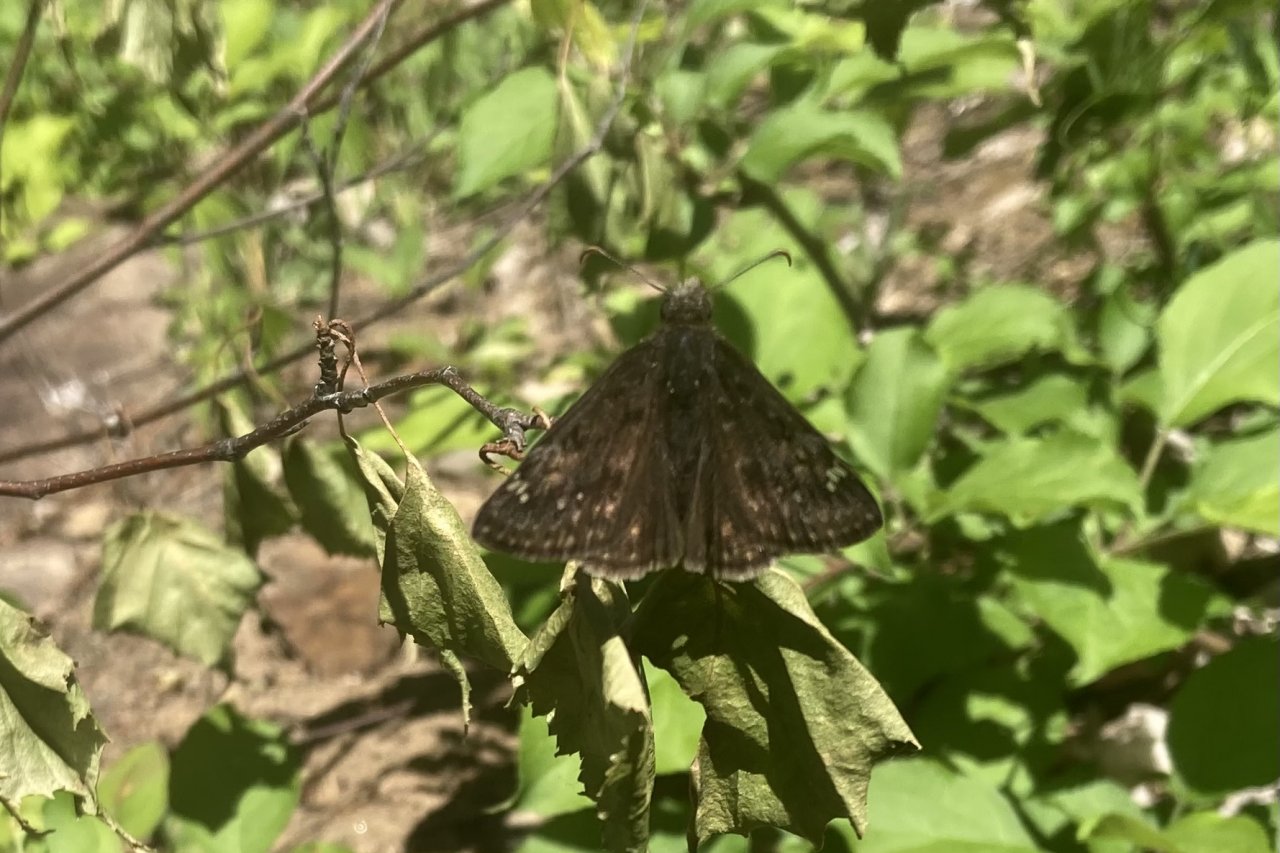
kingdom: Animalia
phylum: Arthropoda
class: Insecta
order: Lepidoptera
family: Hesperiidae
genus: Gesta
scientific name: Gesta
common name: Juvenal's Duskywing
